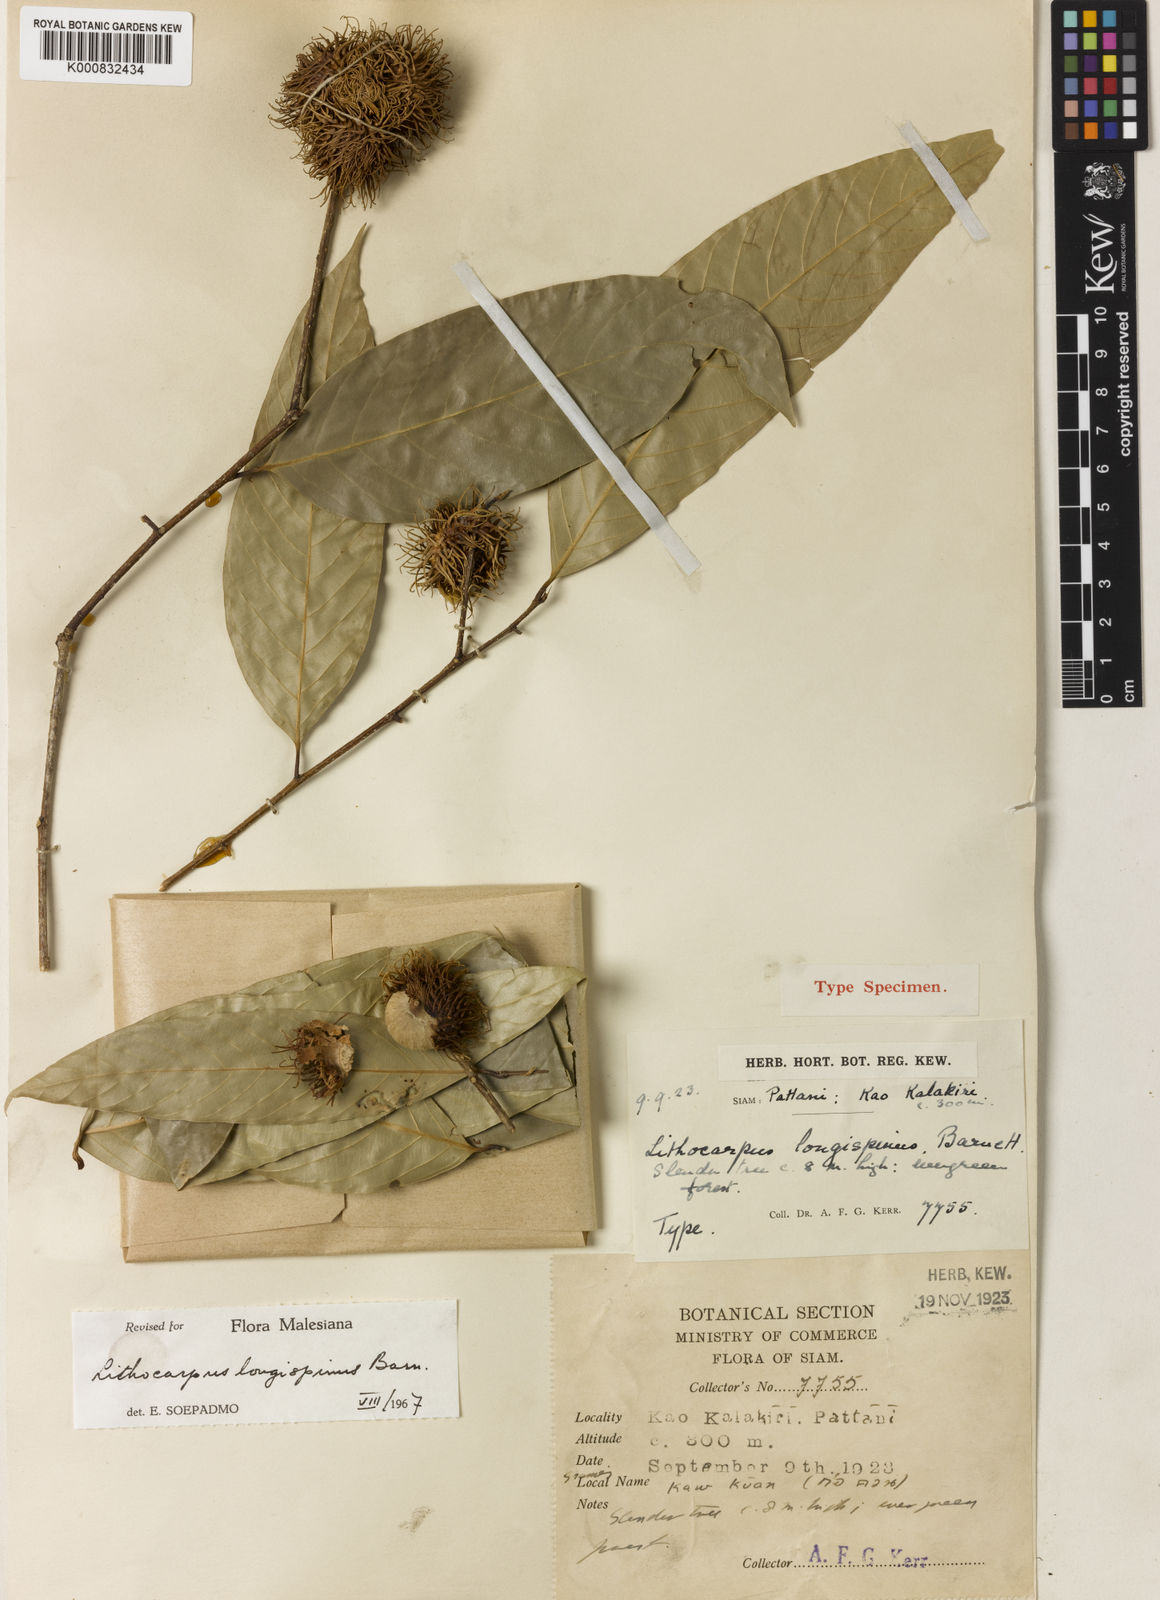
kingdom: Plantae
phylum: Tracheophyta
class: Magnoliopsida
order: Fagales
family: Fagaceae
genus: Lithocarpus
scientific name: Lithocarpus wrayi
